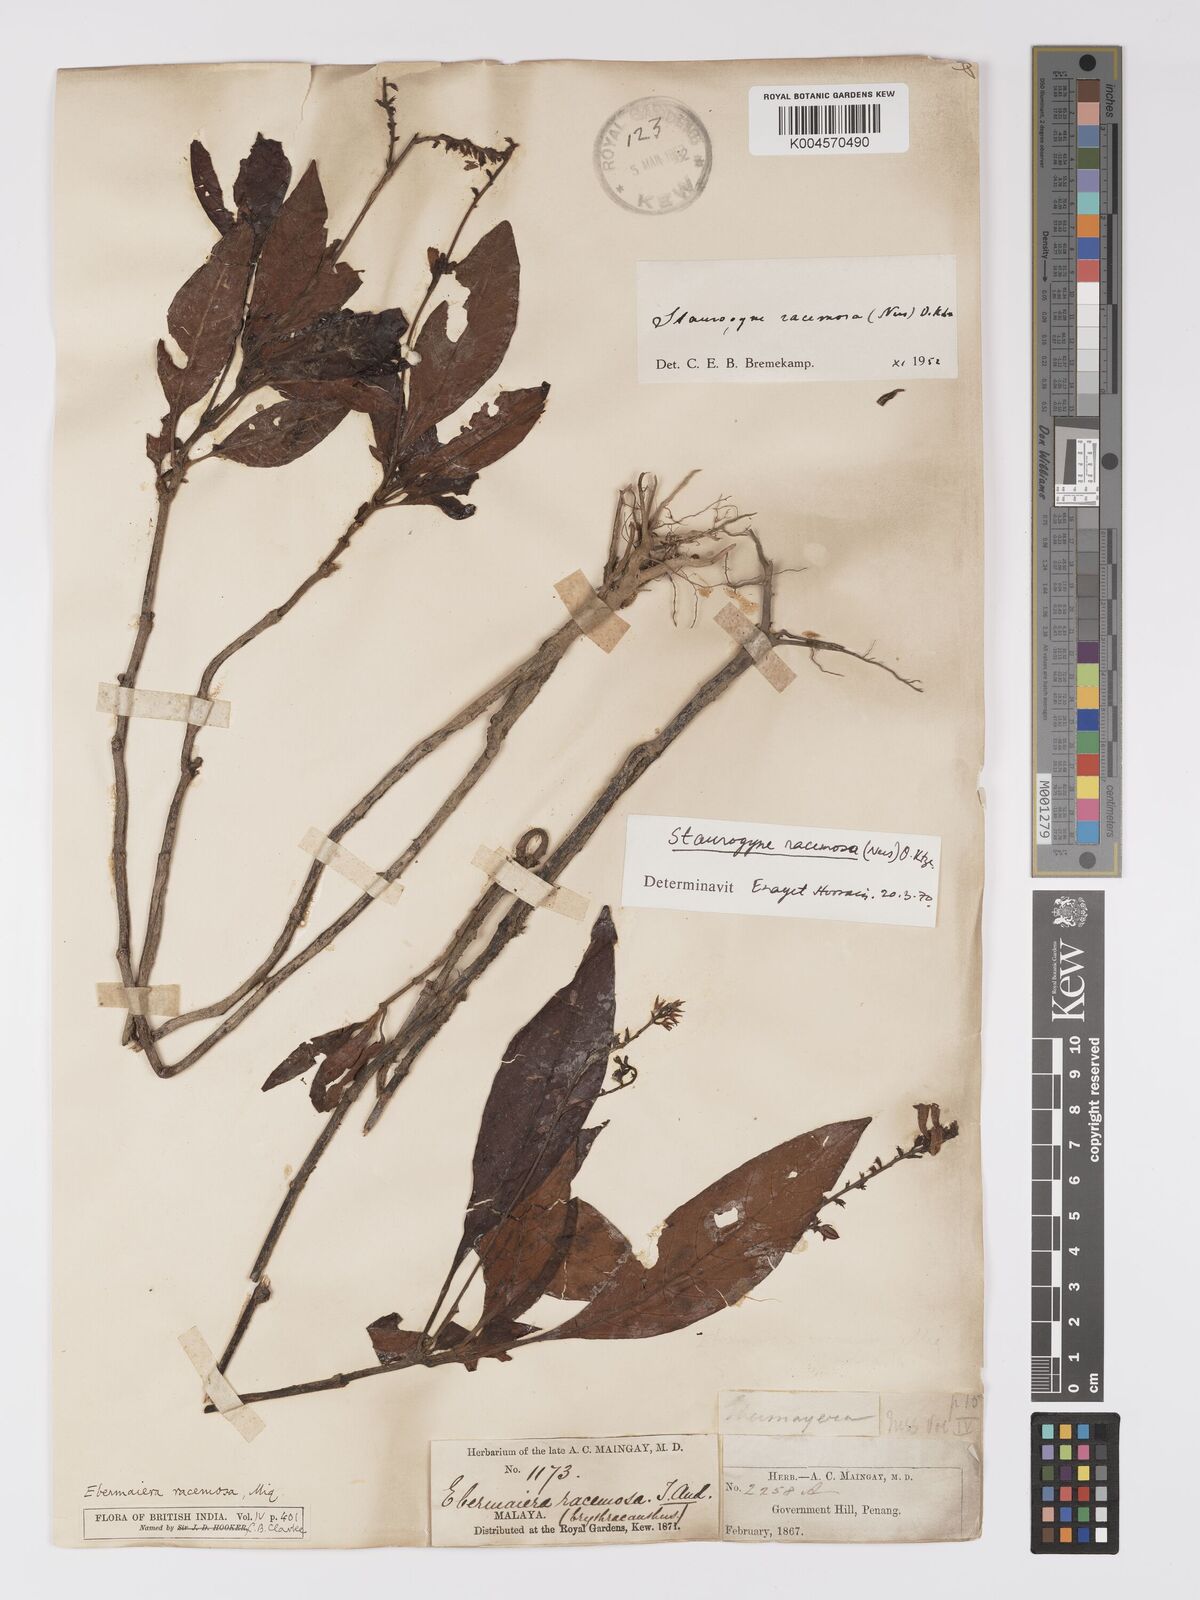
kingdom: Plantae
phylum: Tracheophyta
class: Magnoliopsida
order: Lamiales
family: Acanthaceae
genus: Staurogyne
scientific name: Staurogyne racemosa
